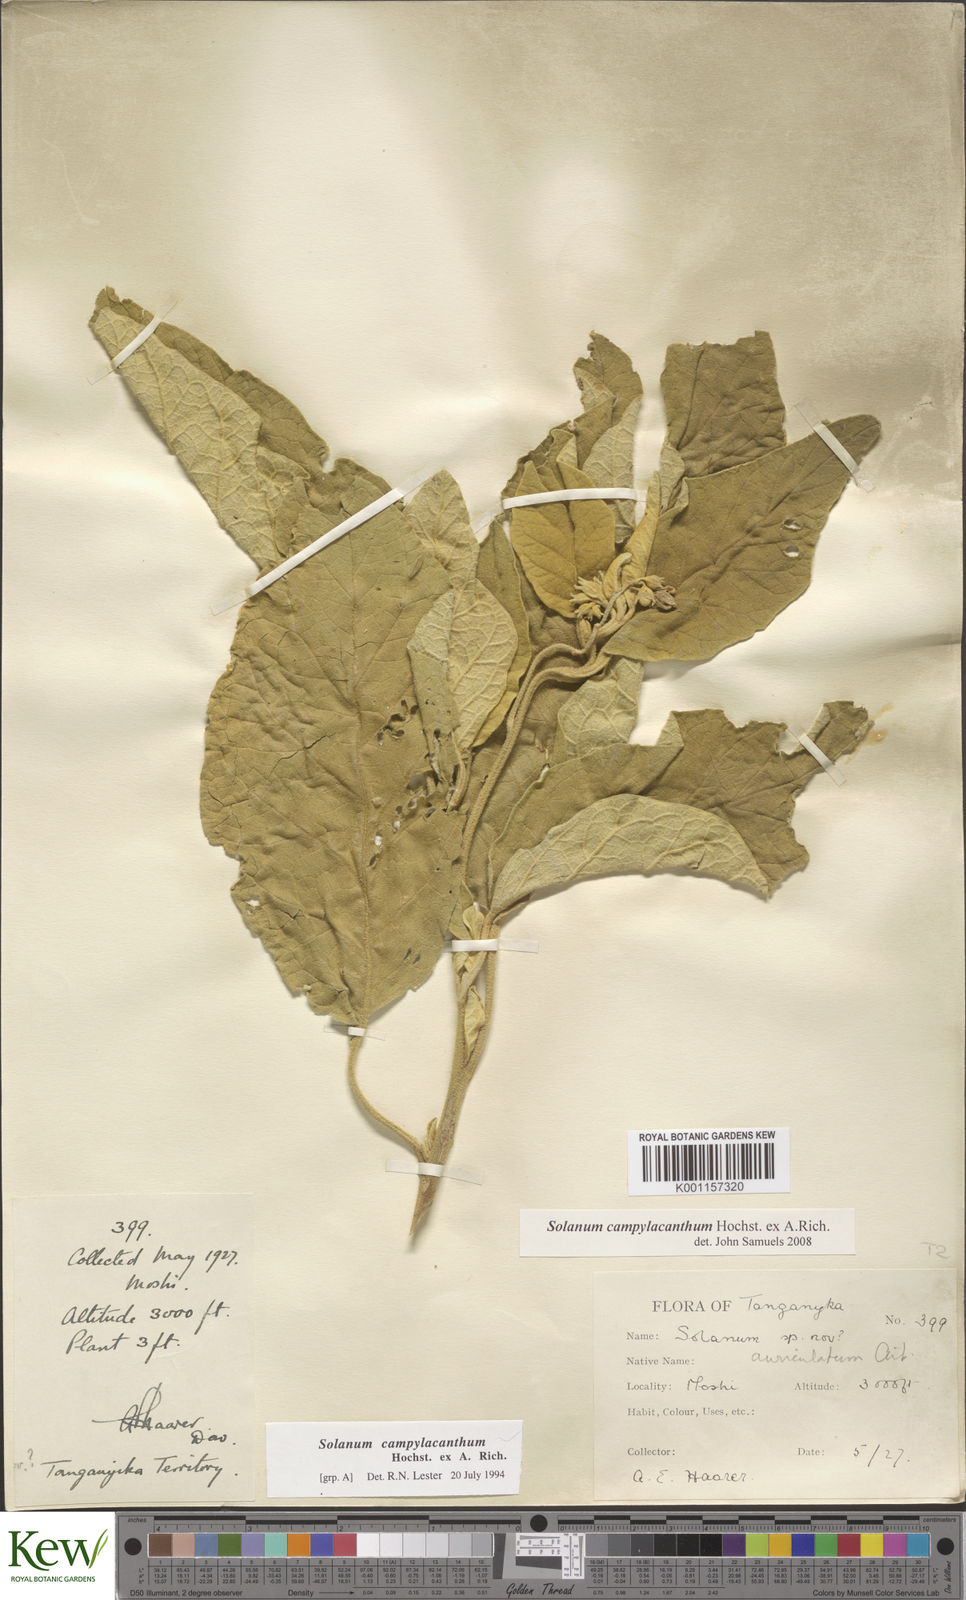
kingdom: Plantae
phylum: Tracheophyta
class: Magnoliopsida
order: Solanales
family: Solanaceae
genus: Solanum
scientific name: Solanum campylacanthum
